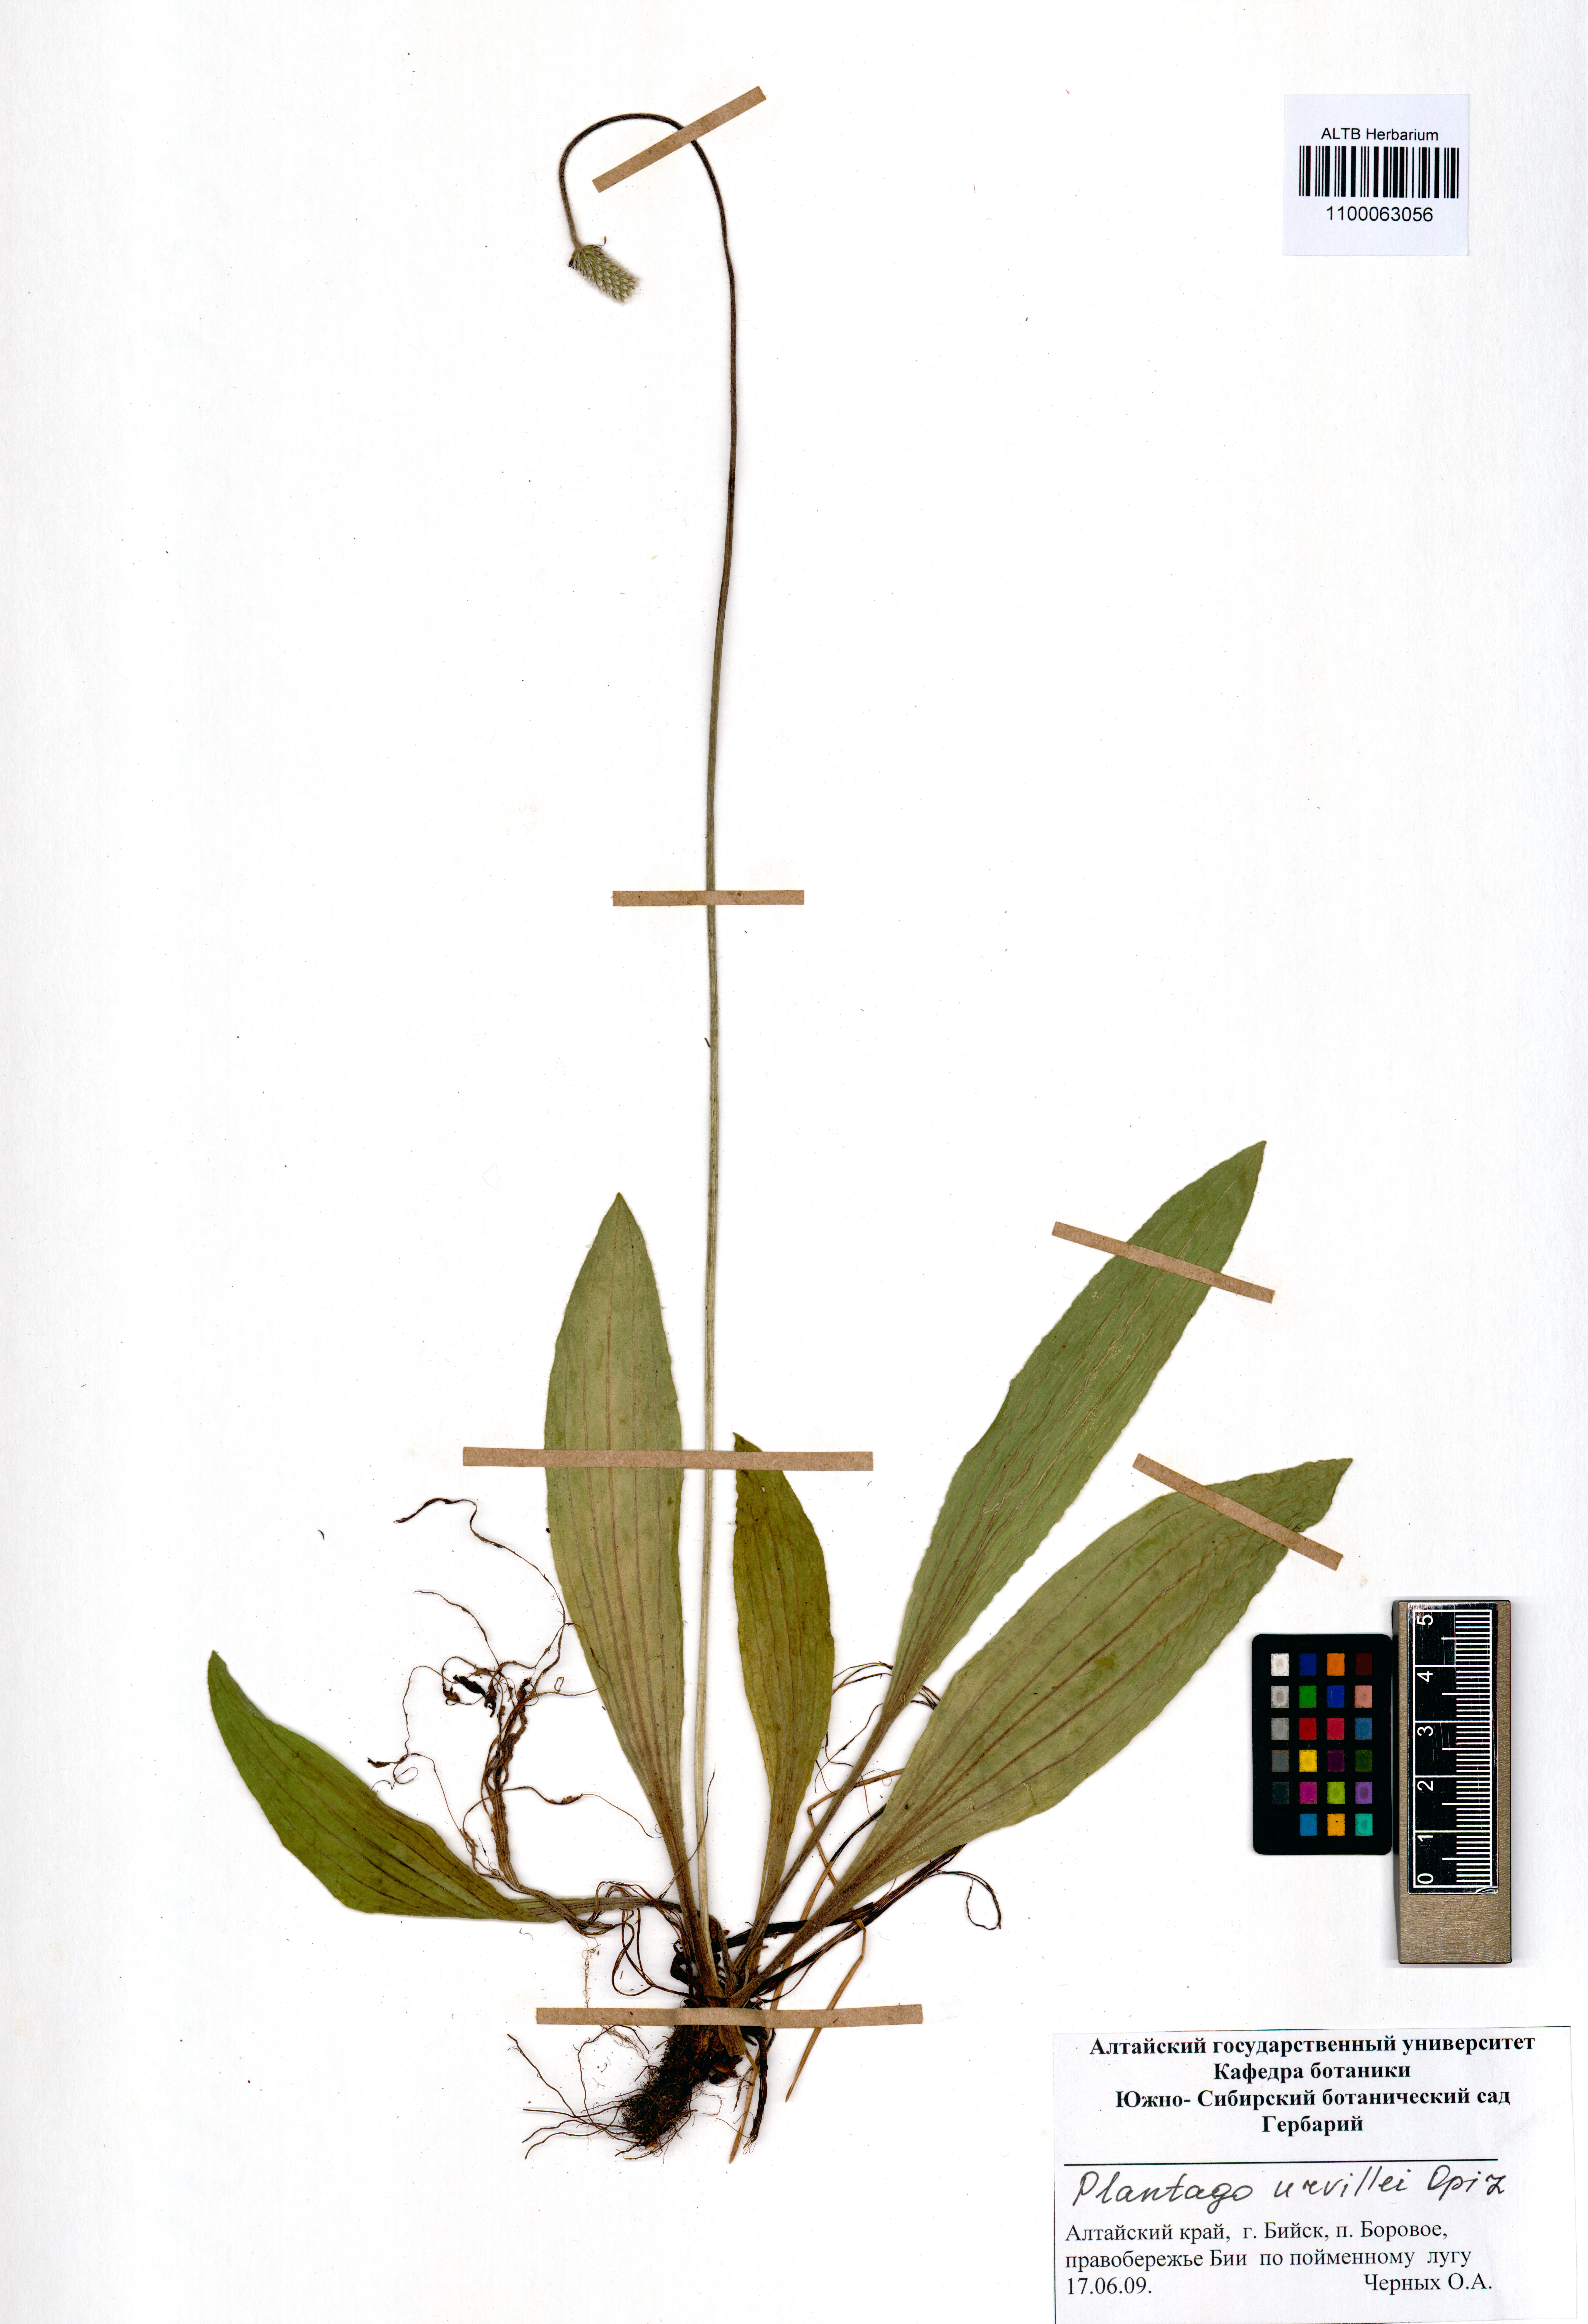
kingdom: Plantae
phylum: Tracheophyta
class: Magnoliopsida
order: Lamiales
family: Plantaginaceae
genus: Plantago
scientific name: Plantago urvillei
